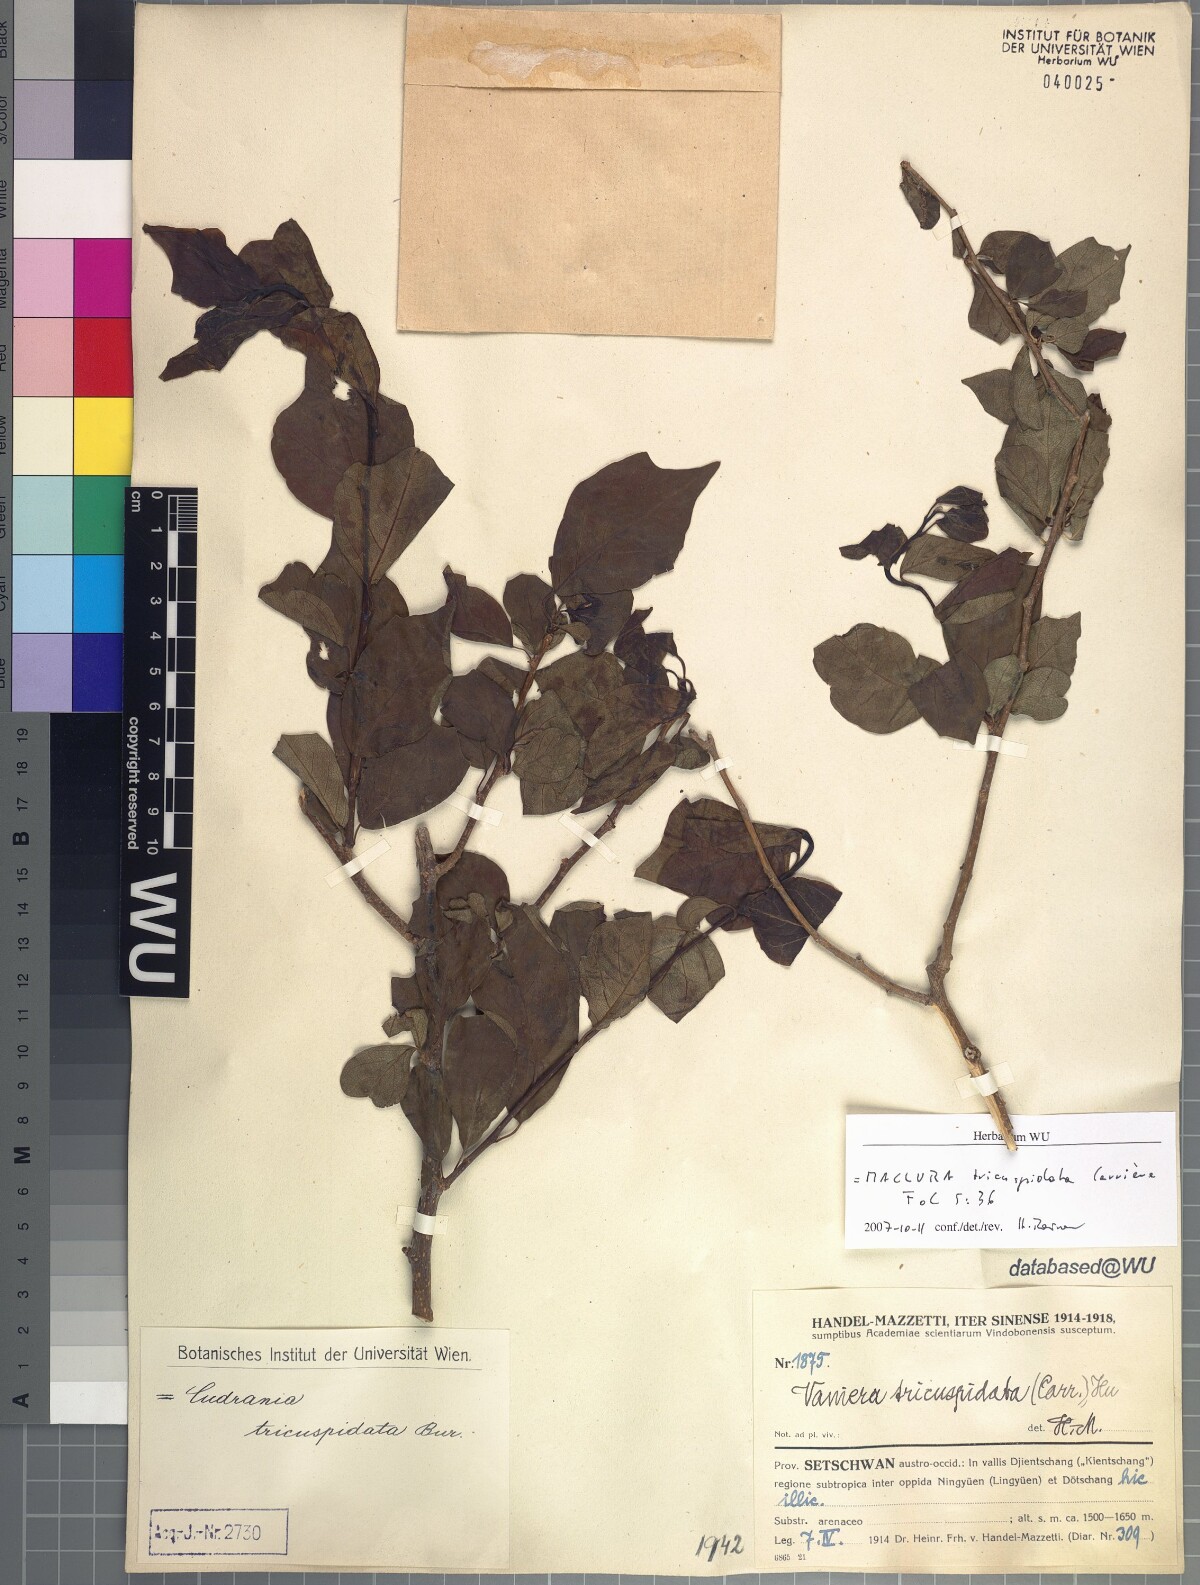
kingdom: Plantae
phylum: Tracheophyta
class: Magnoliopsida
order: Rosales
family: Moraceae
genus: Maclura
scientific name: Maclura tricuspidata
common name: Storehousebush
